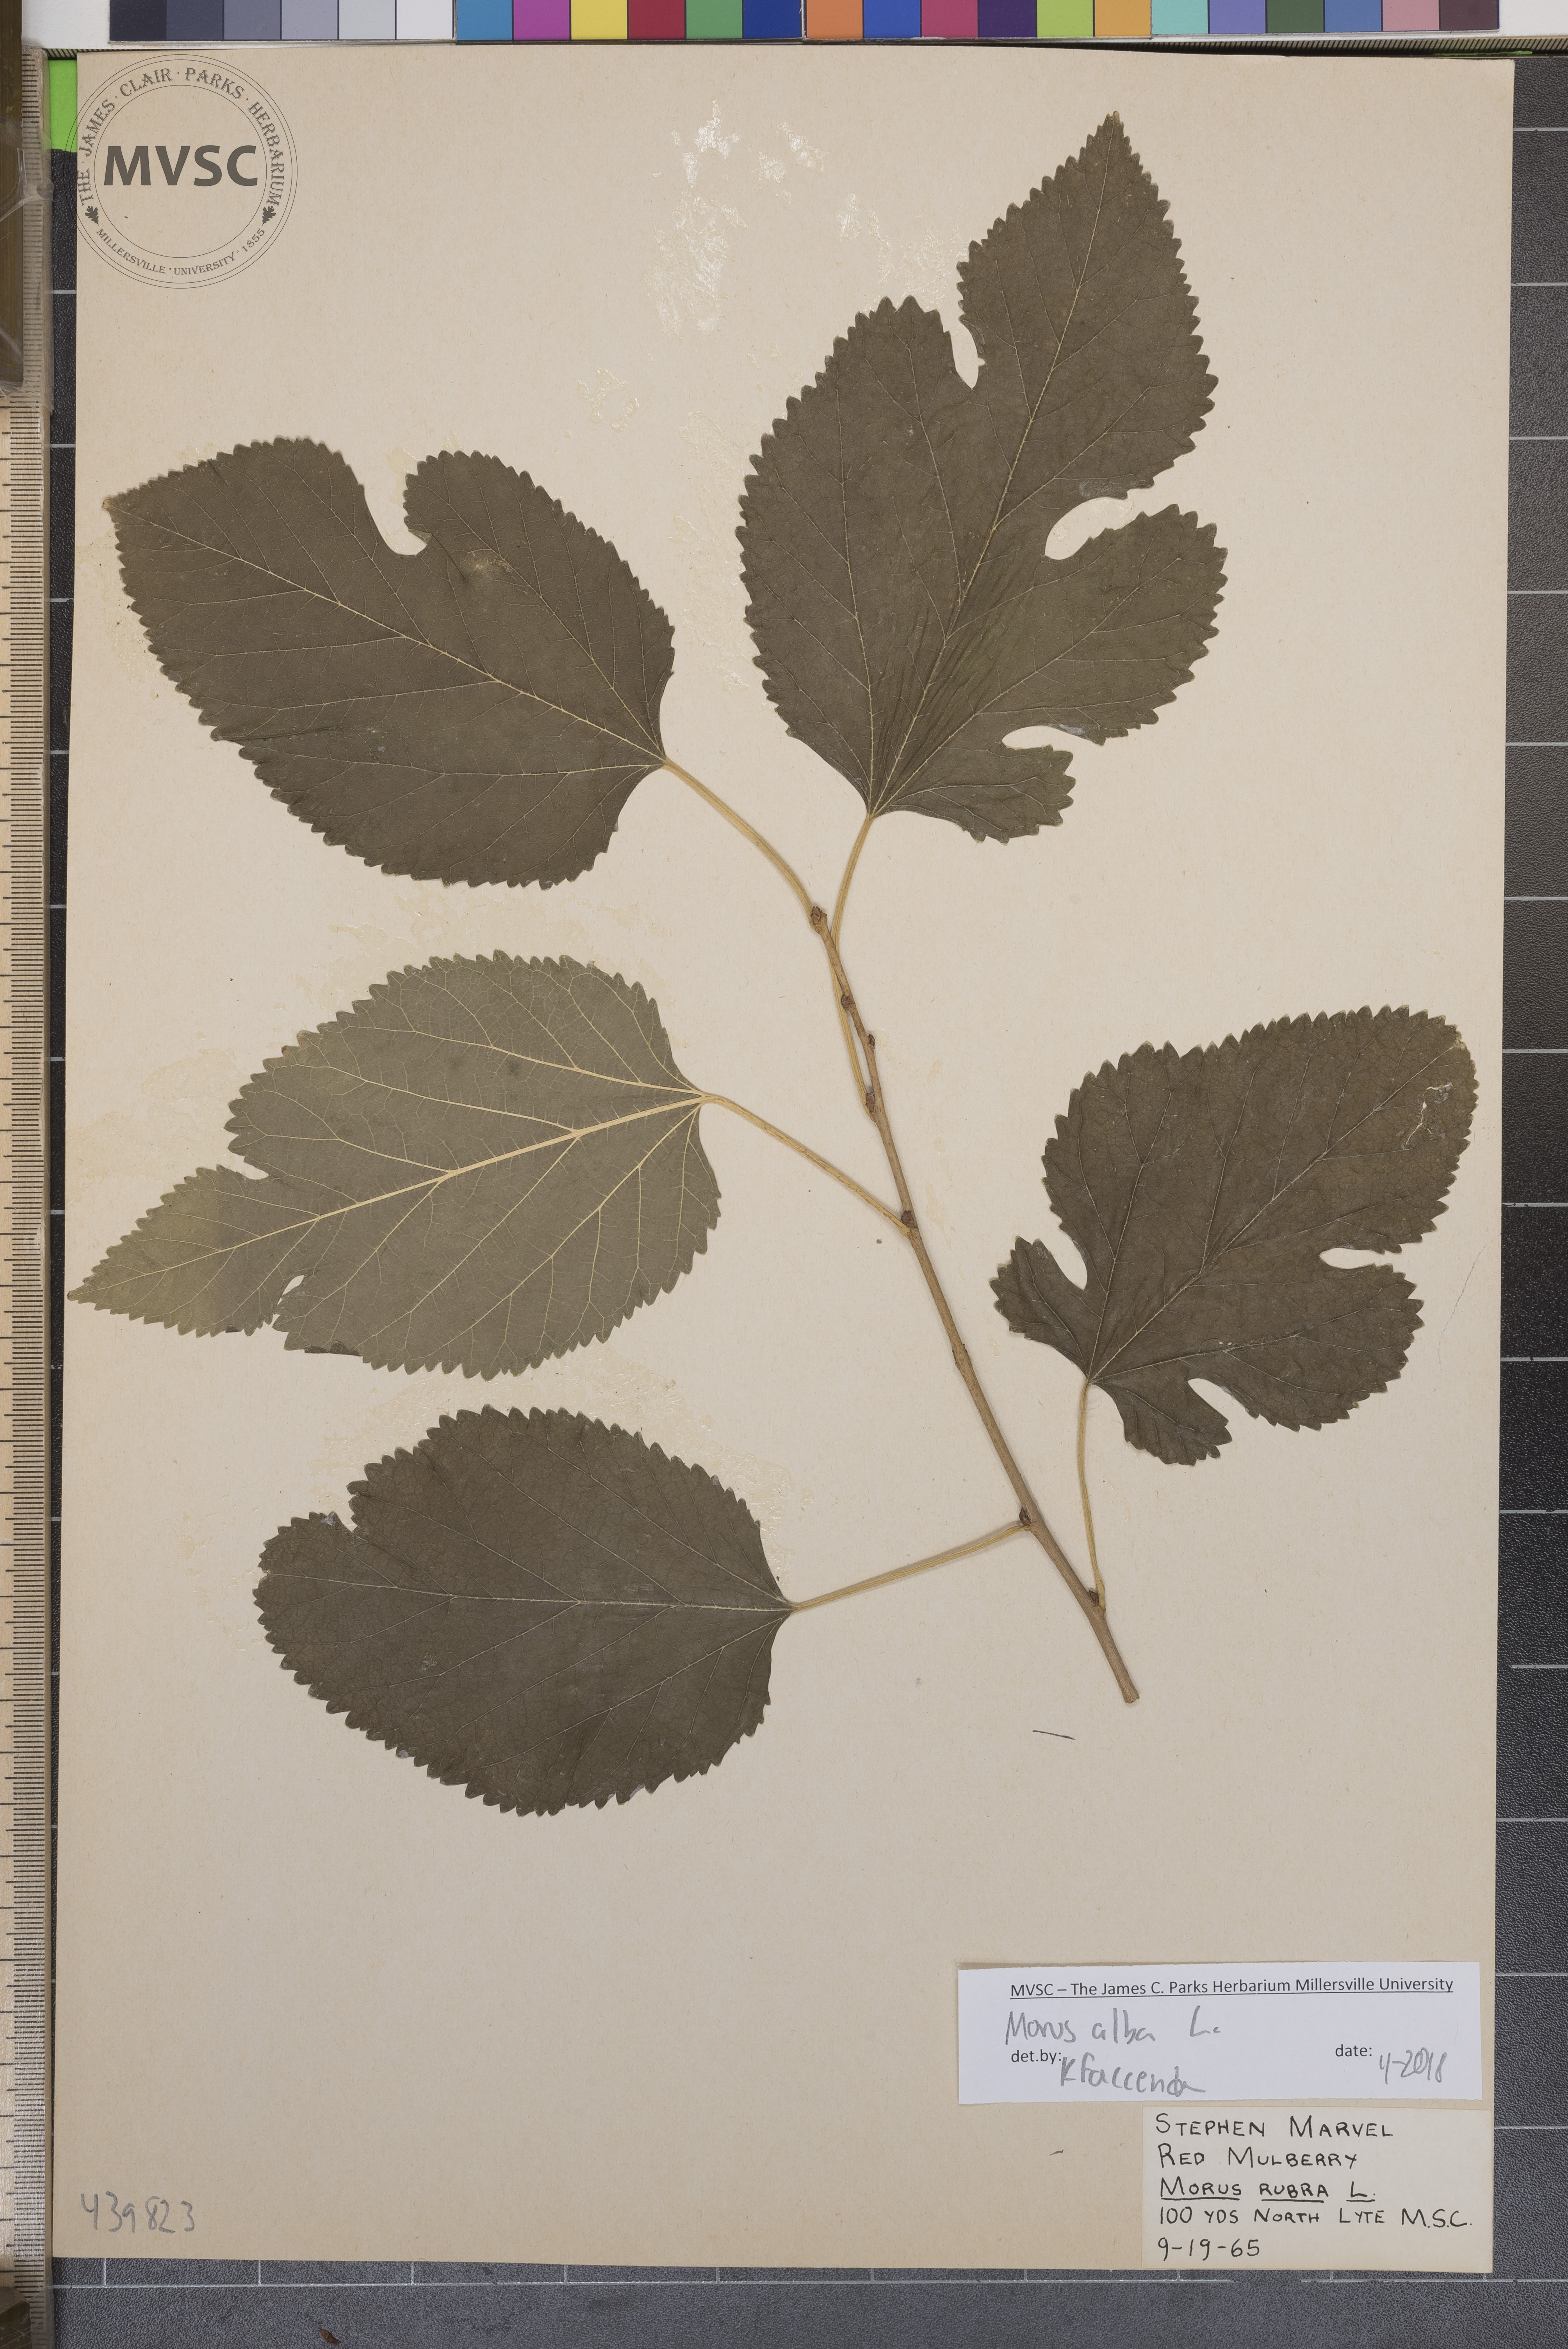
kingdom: Plantae
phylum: Tracheophyta
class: Magnoliopsida
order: Rosales
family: Moraceae
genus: Morus
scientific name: Morus alba
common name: White mulberry
